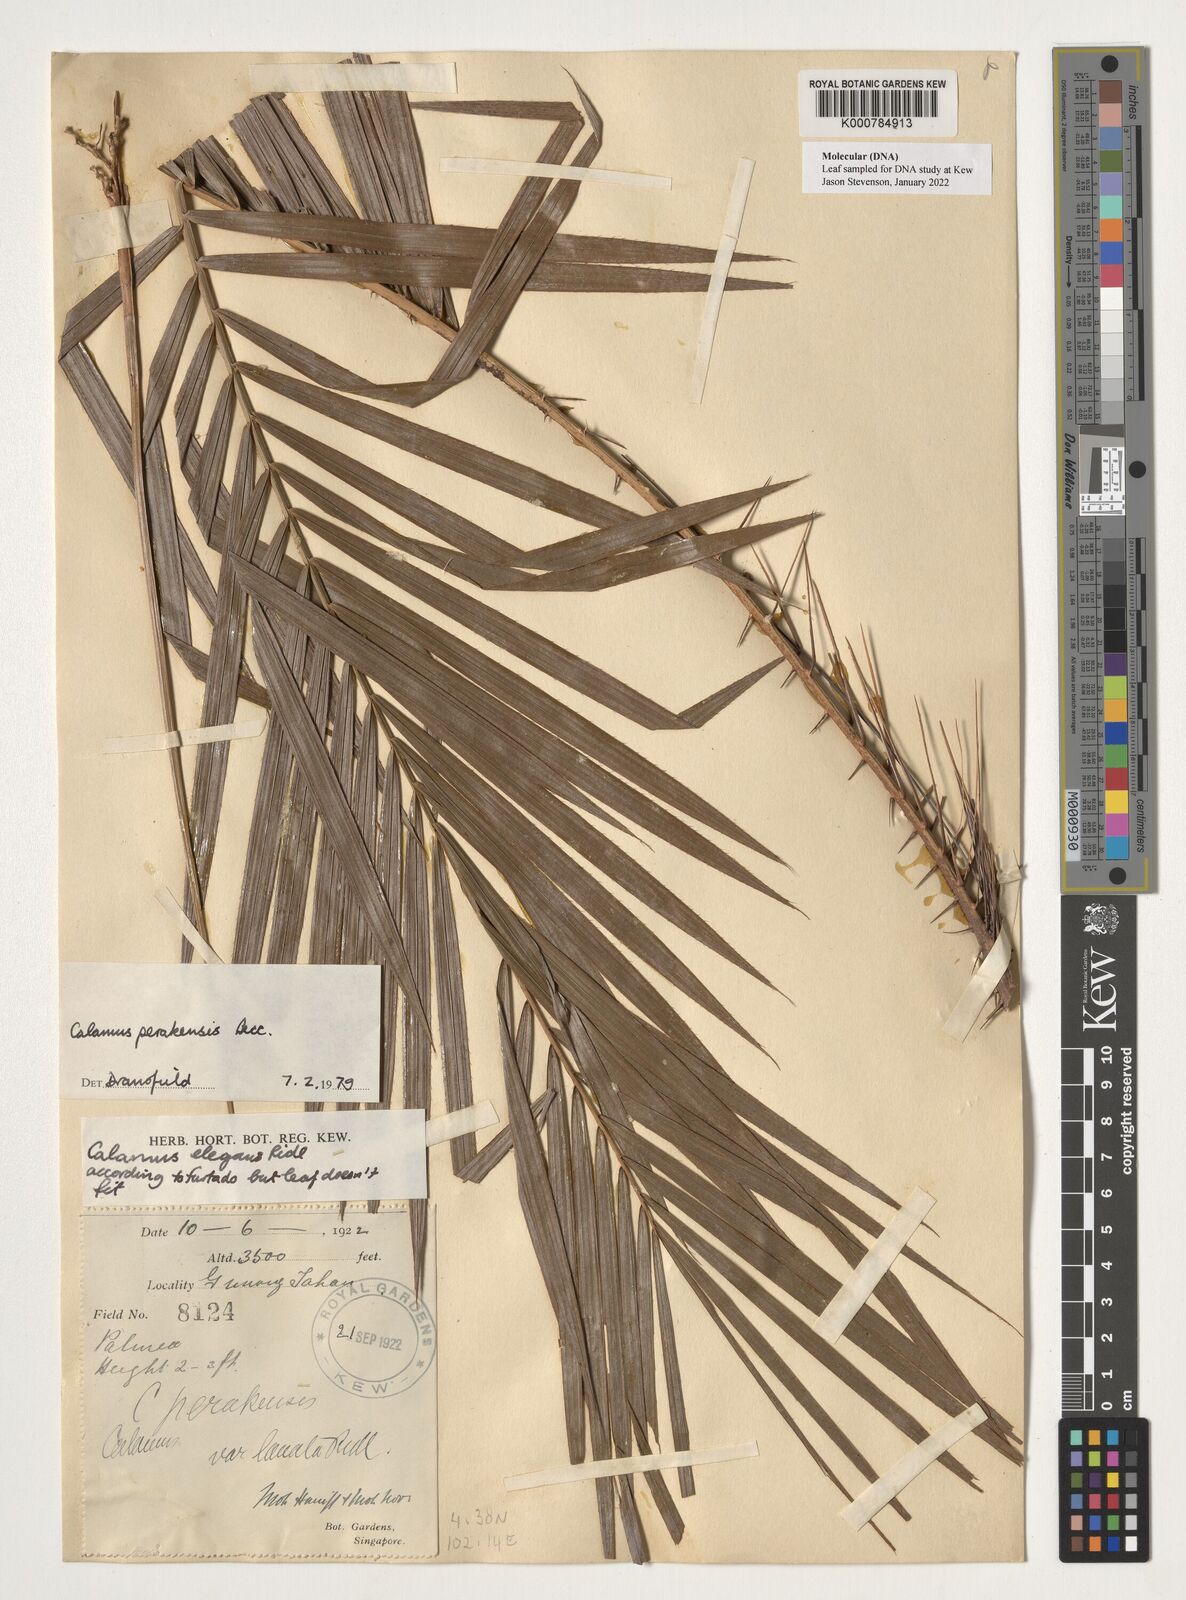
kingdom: Plantae
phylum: Tracheophyta
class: Liliopsida
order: Arecales
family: Arecaceae
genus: Calamus
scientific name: Calamus perakensis
